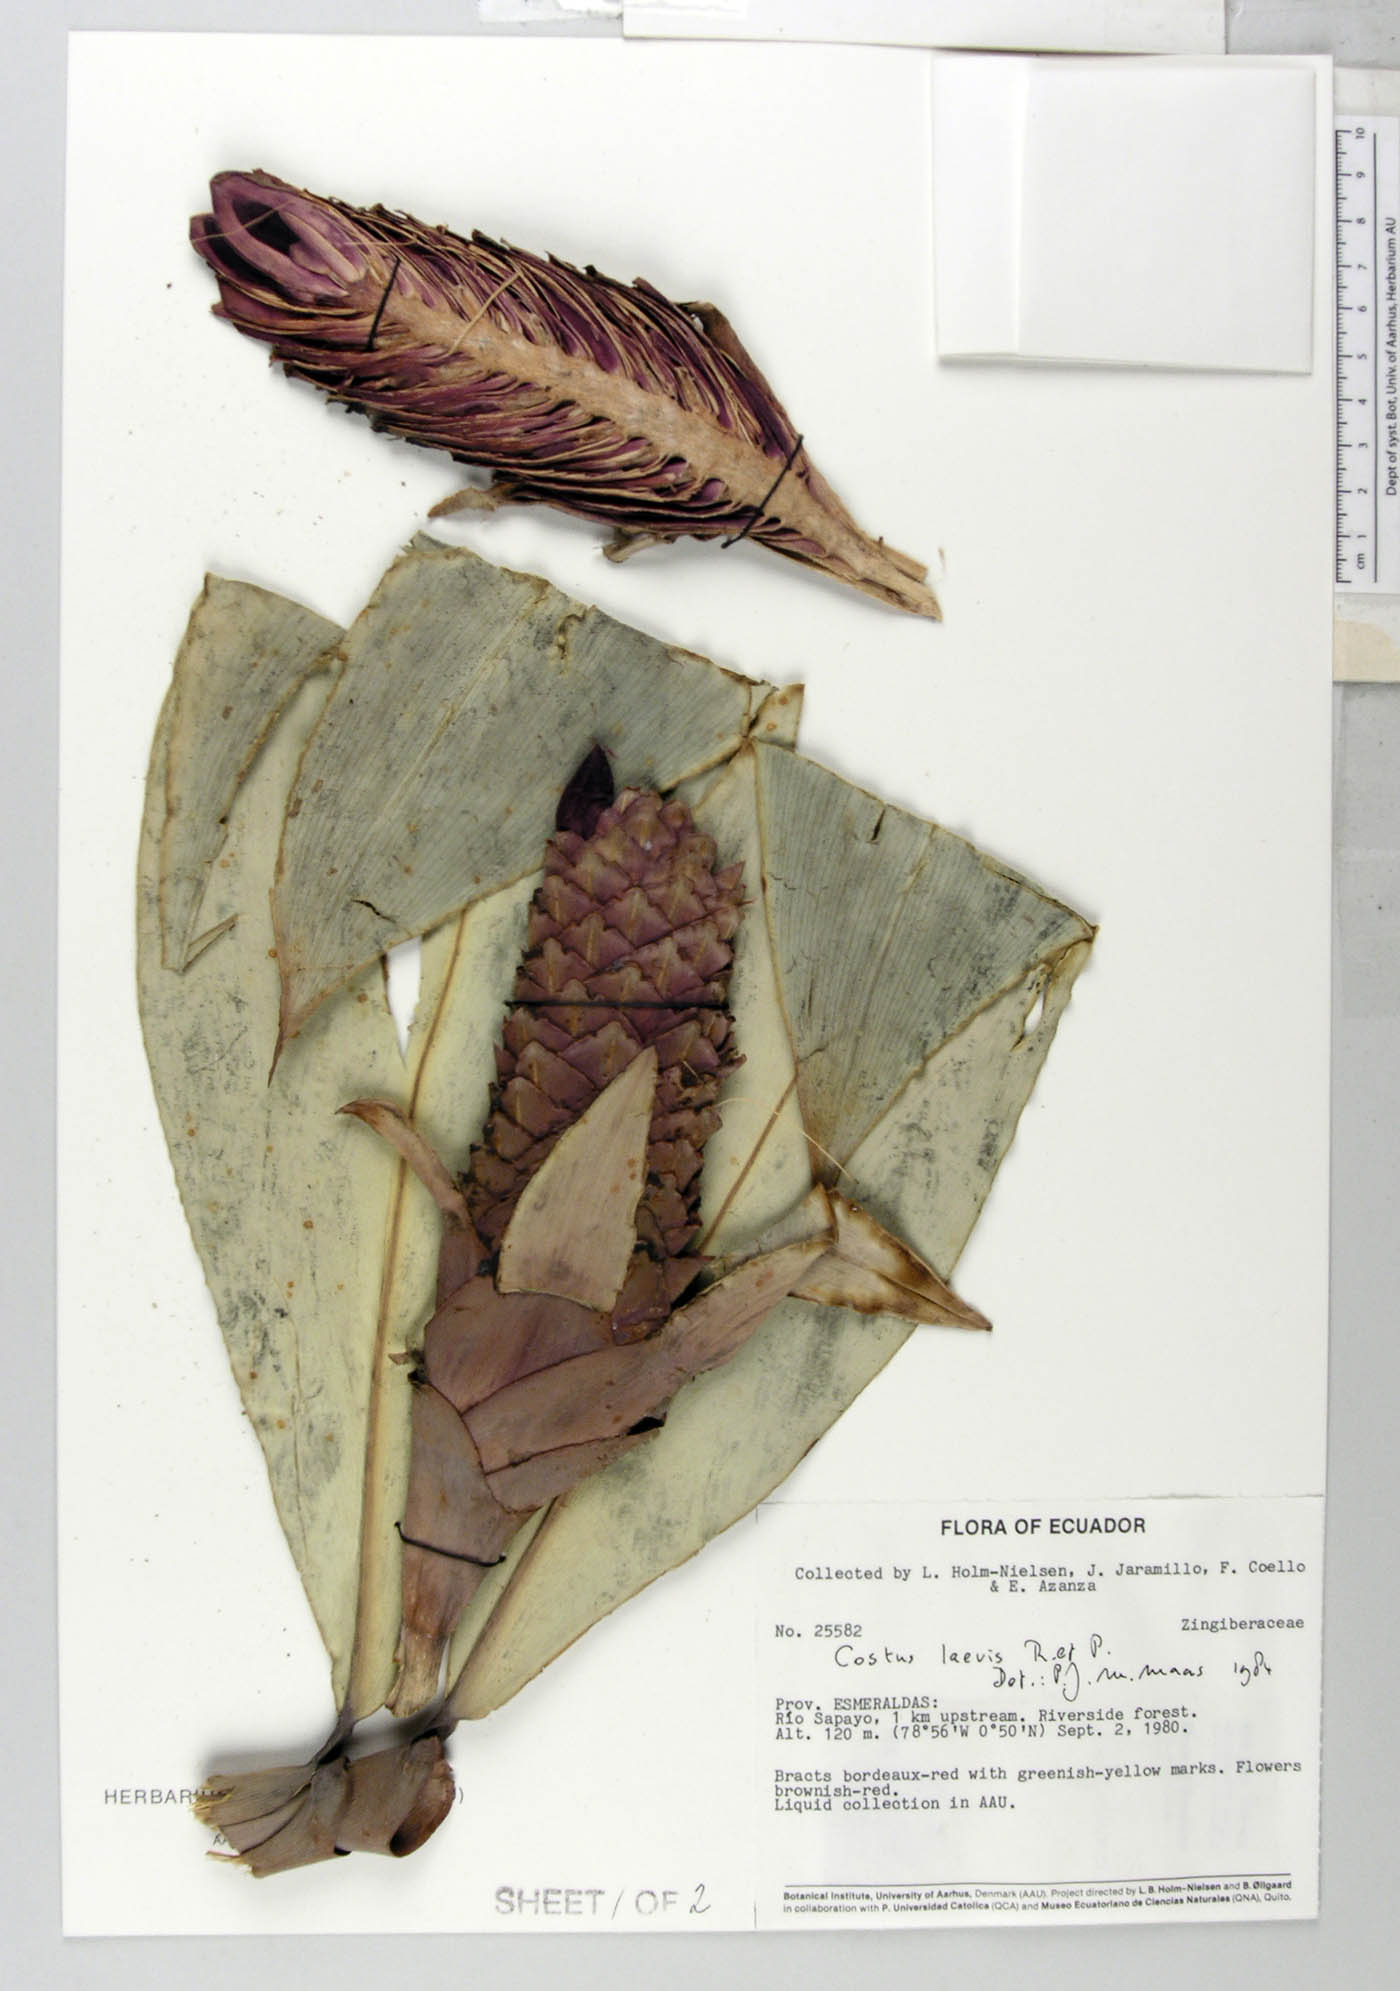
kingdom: Plantae
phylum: Tracheophyta
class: Liliopsida
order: Zingiberales
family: Costaceae
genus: Costus
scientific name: Costus laevis
